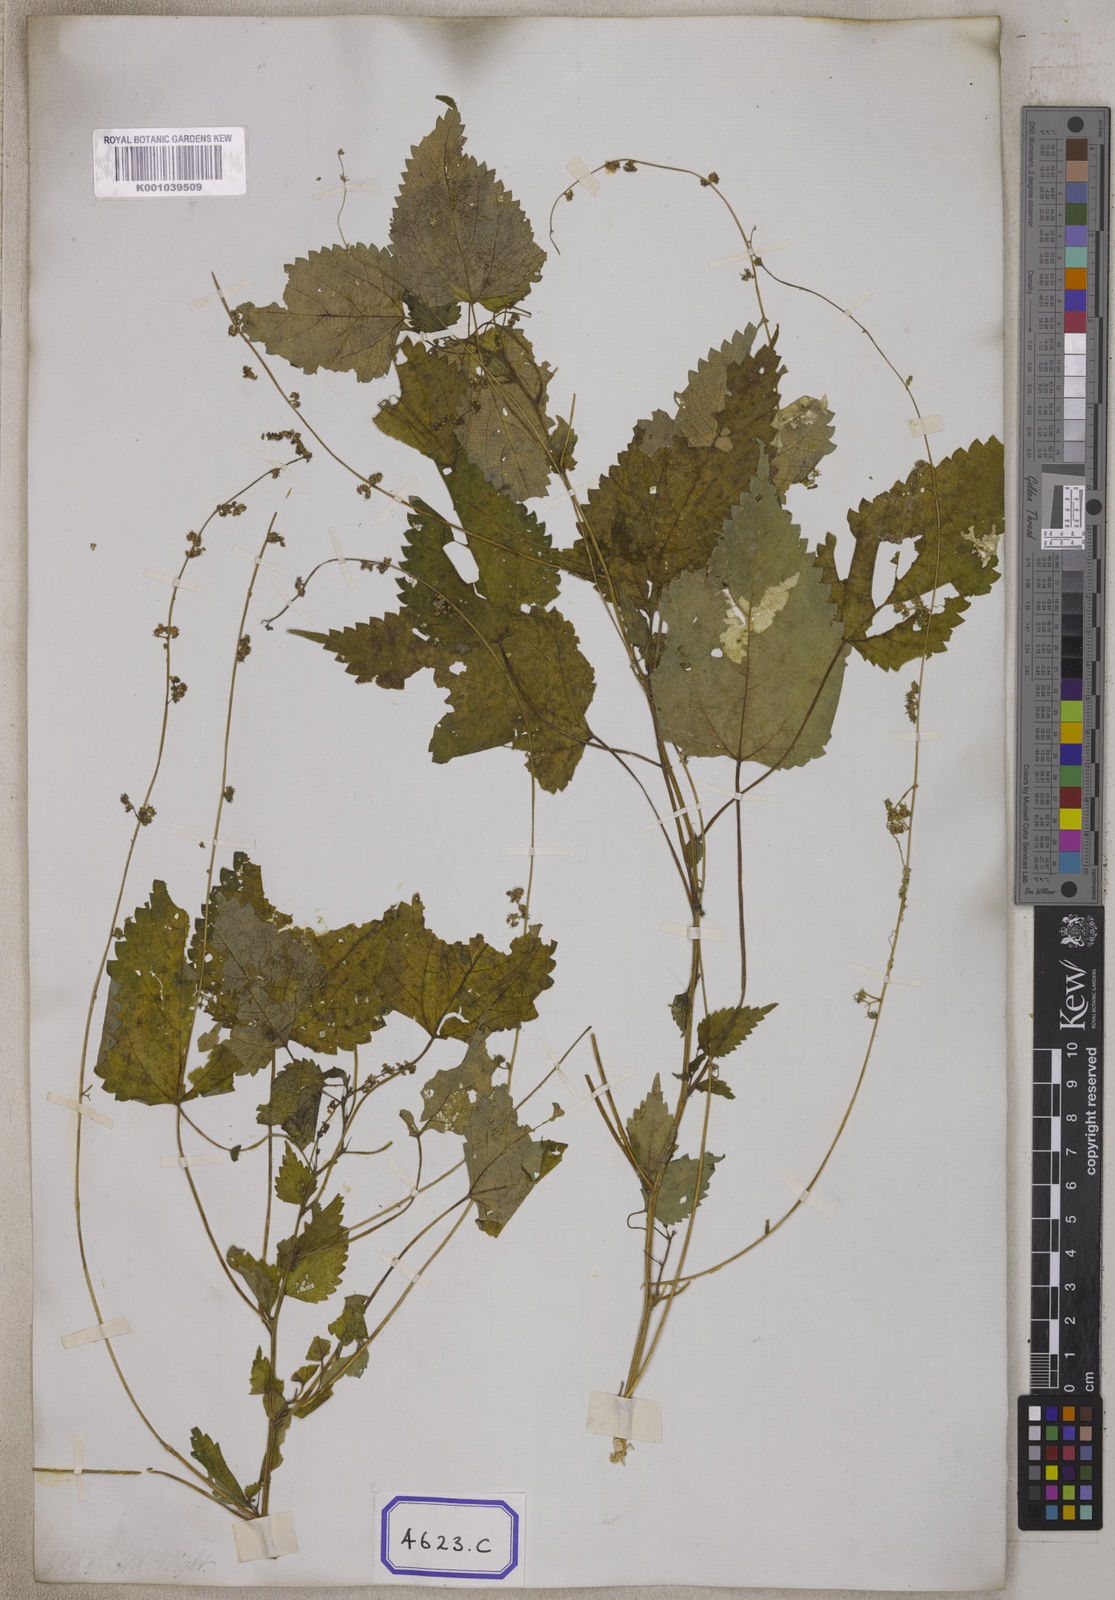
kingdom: Plantae
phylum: Tracheophyta
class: Magnoliopsida
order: Rosales
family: Urticaceae
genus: Laportea
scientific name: Laportea interrupta
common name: Hawaiian wood-nettle
